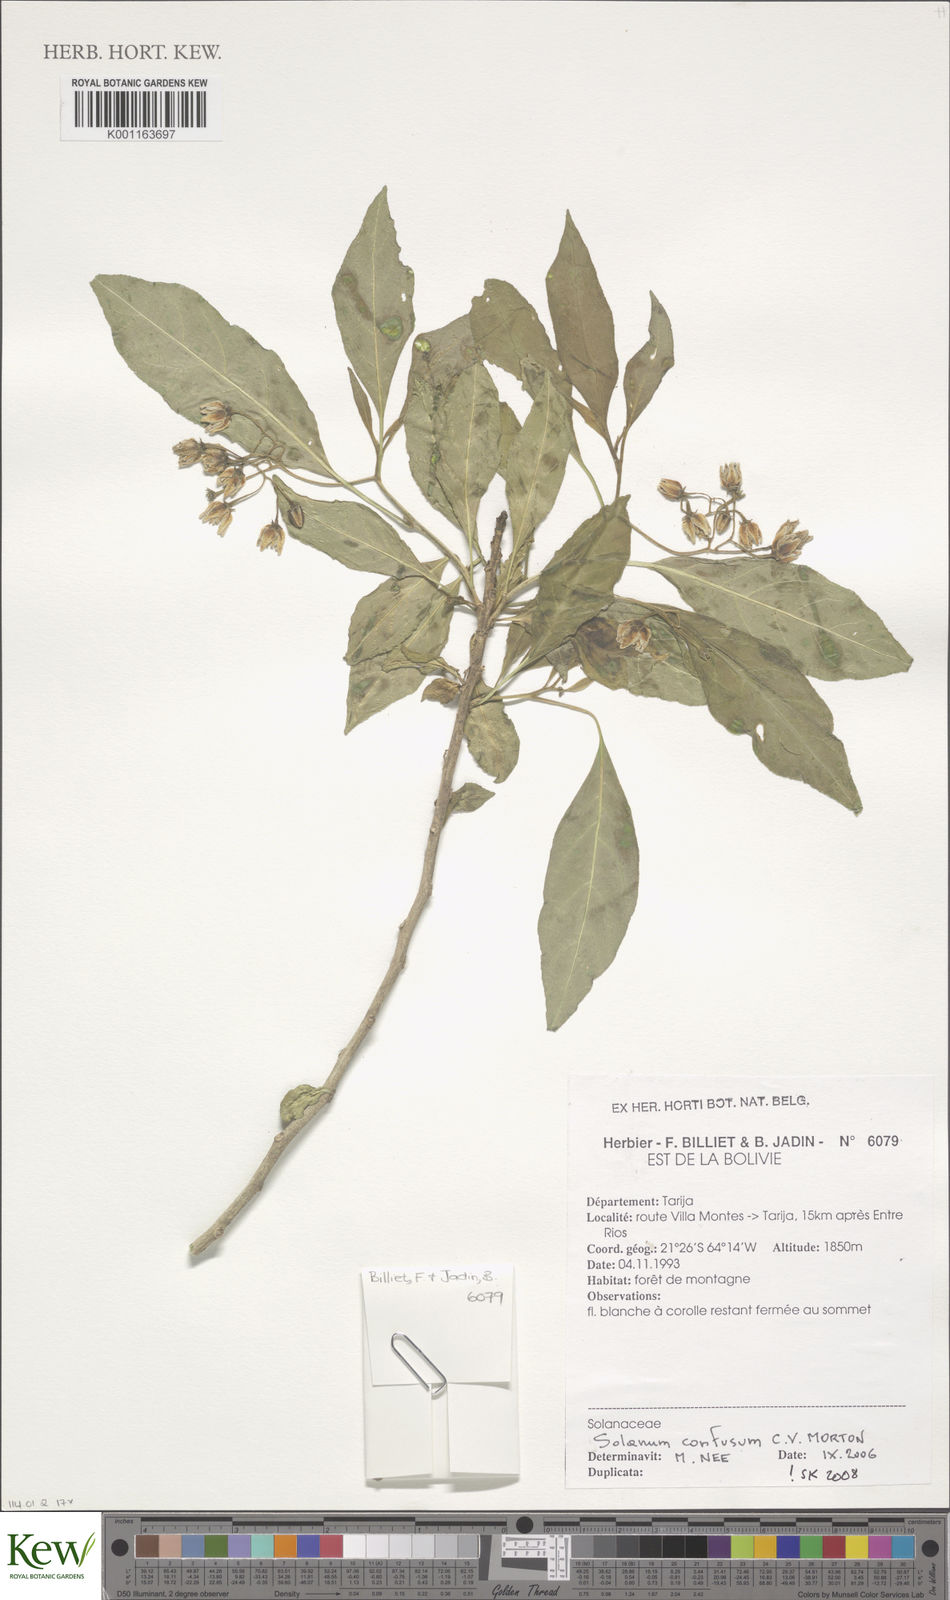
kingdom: Plantae
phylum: Tracheophyta
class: Magnoliopsida
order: Solanales
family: Solanaceae
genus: Solanum
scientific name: Solanum confusum
